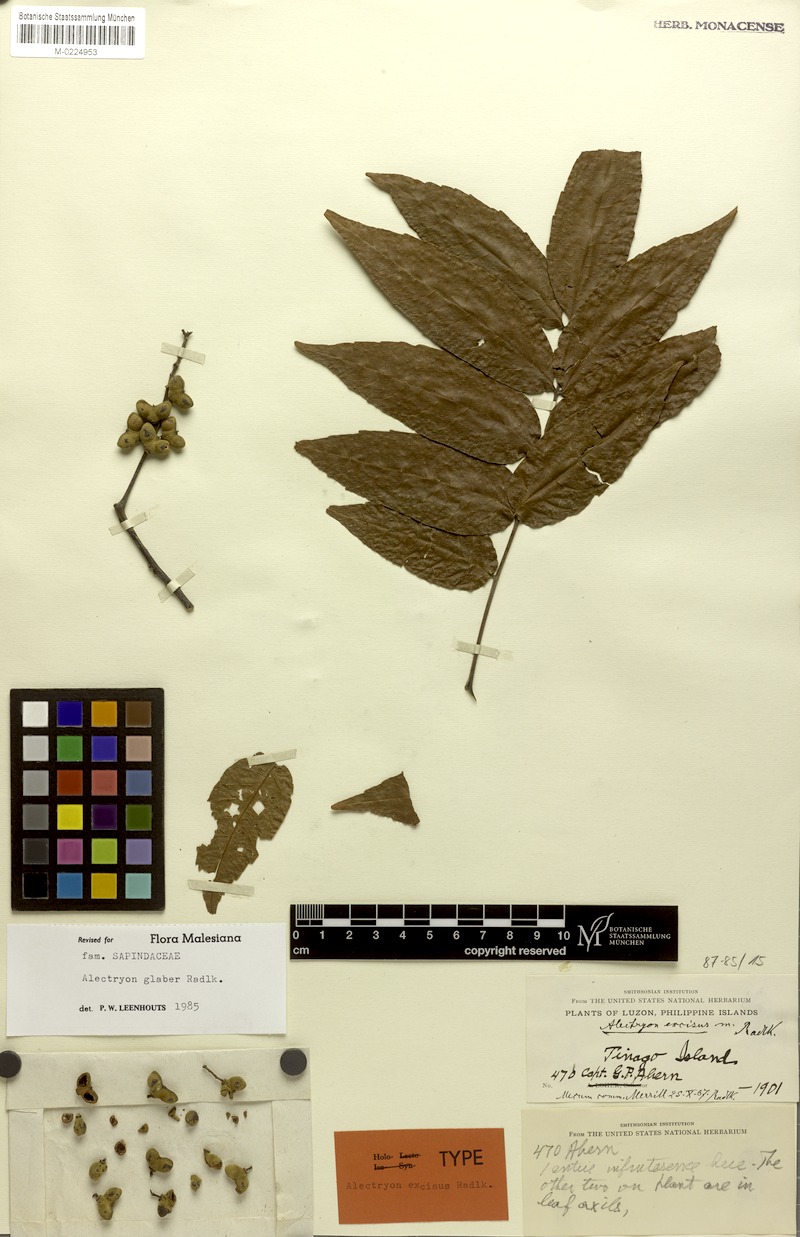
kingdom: Plantae
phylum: Tracheophyta
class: Magnoliopsida
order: Sapindales
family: Sapindaceae
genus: Alectryon
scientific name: Alectryon glaber
